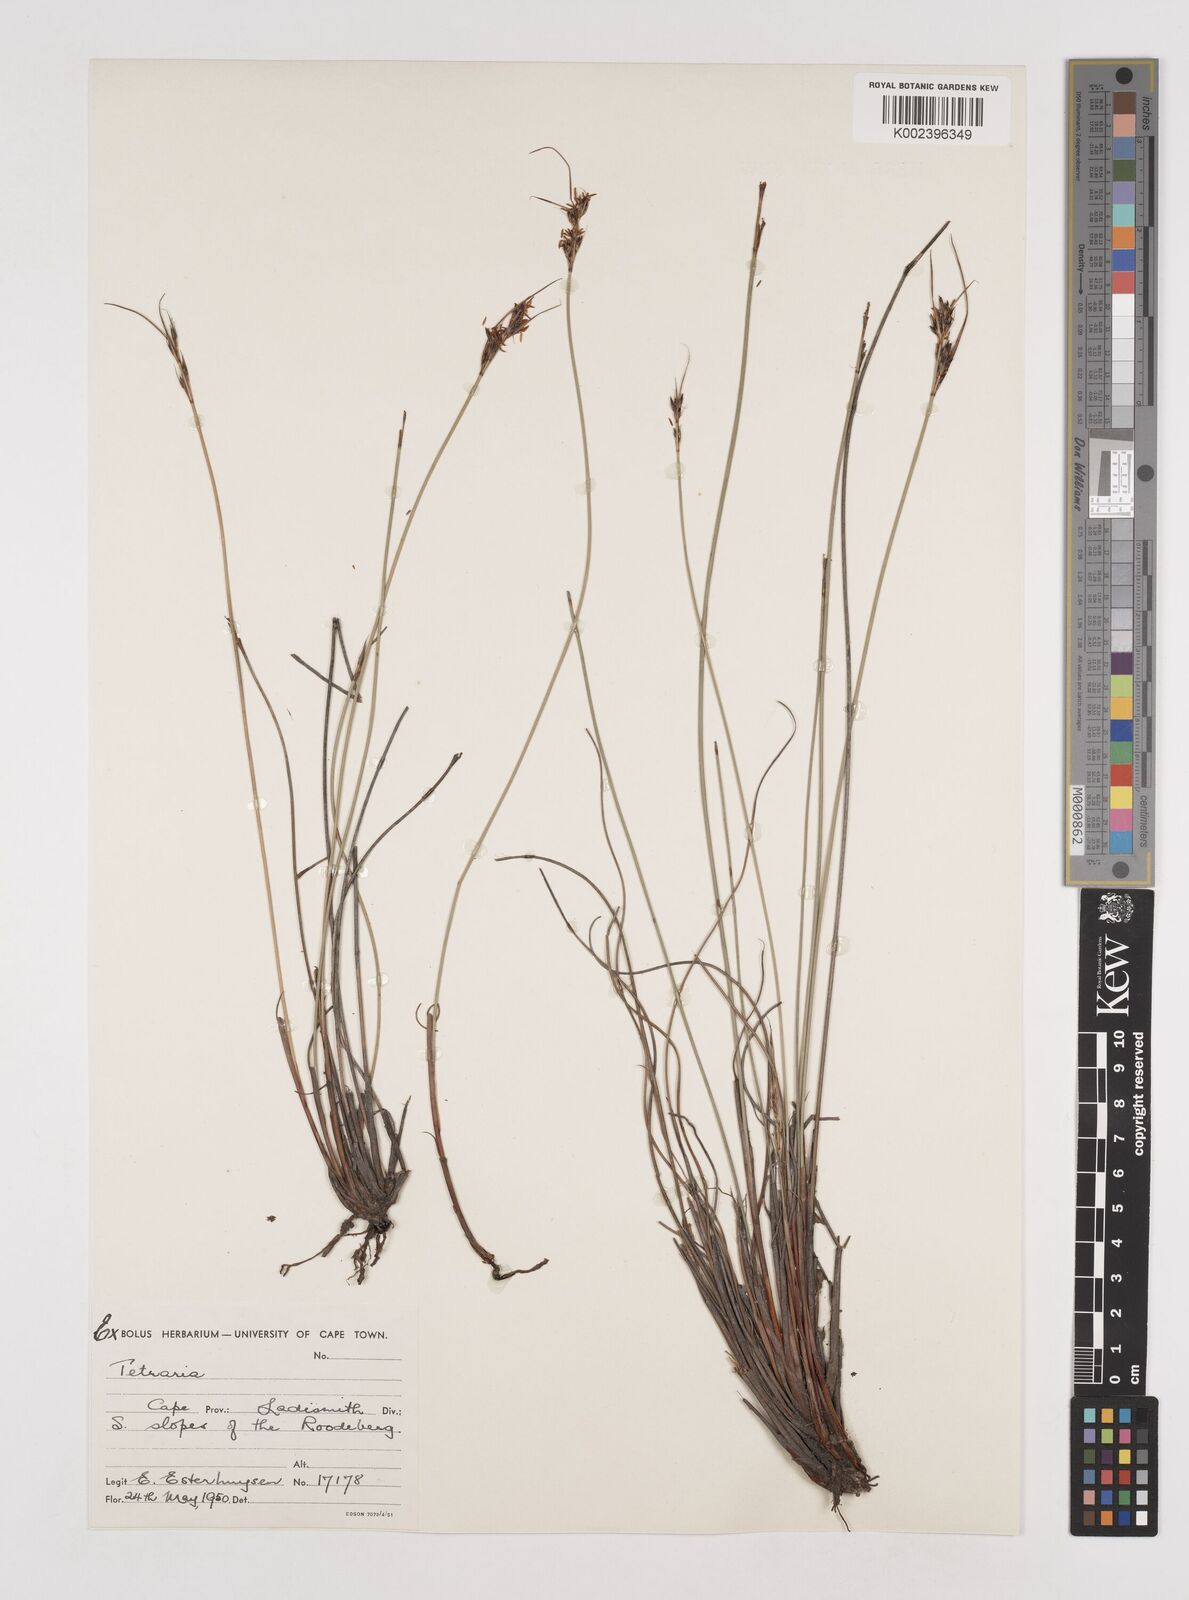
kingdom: Plantae
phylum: Tracheophyta
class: Liliopsida
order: Poales
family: Cyperaceae
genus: Tetraria
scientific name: Tetraria
